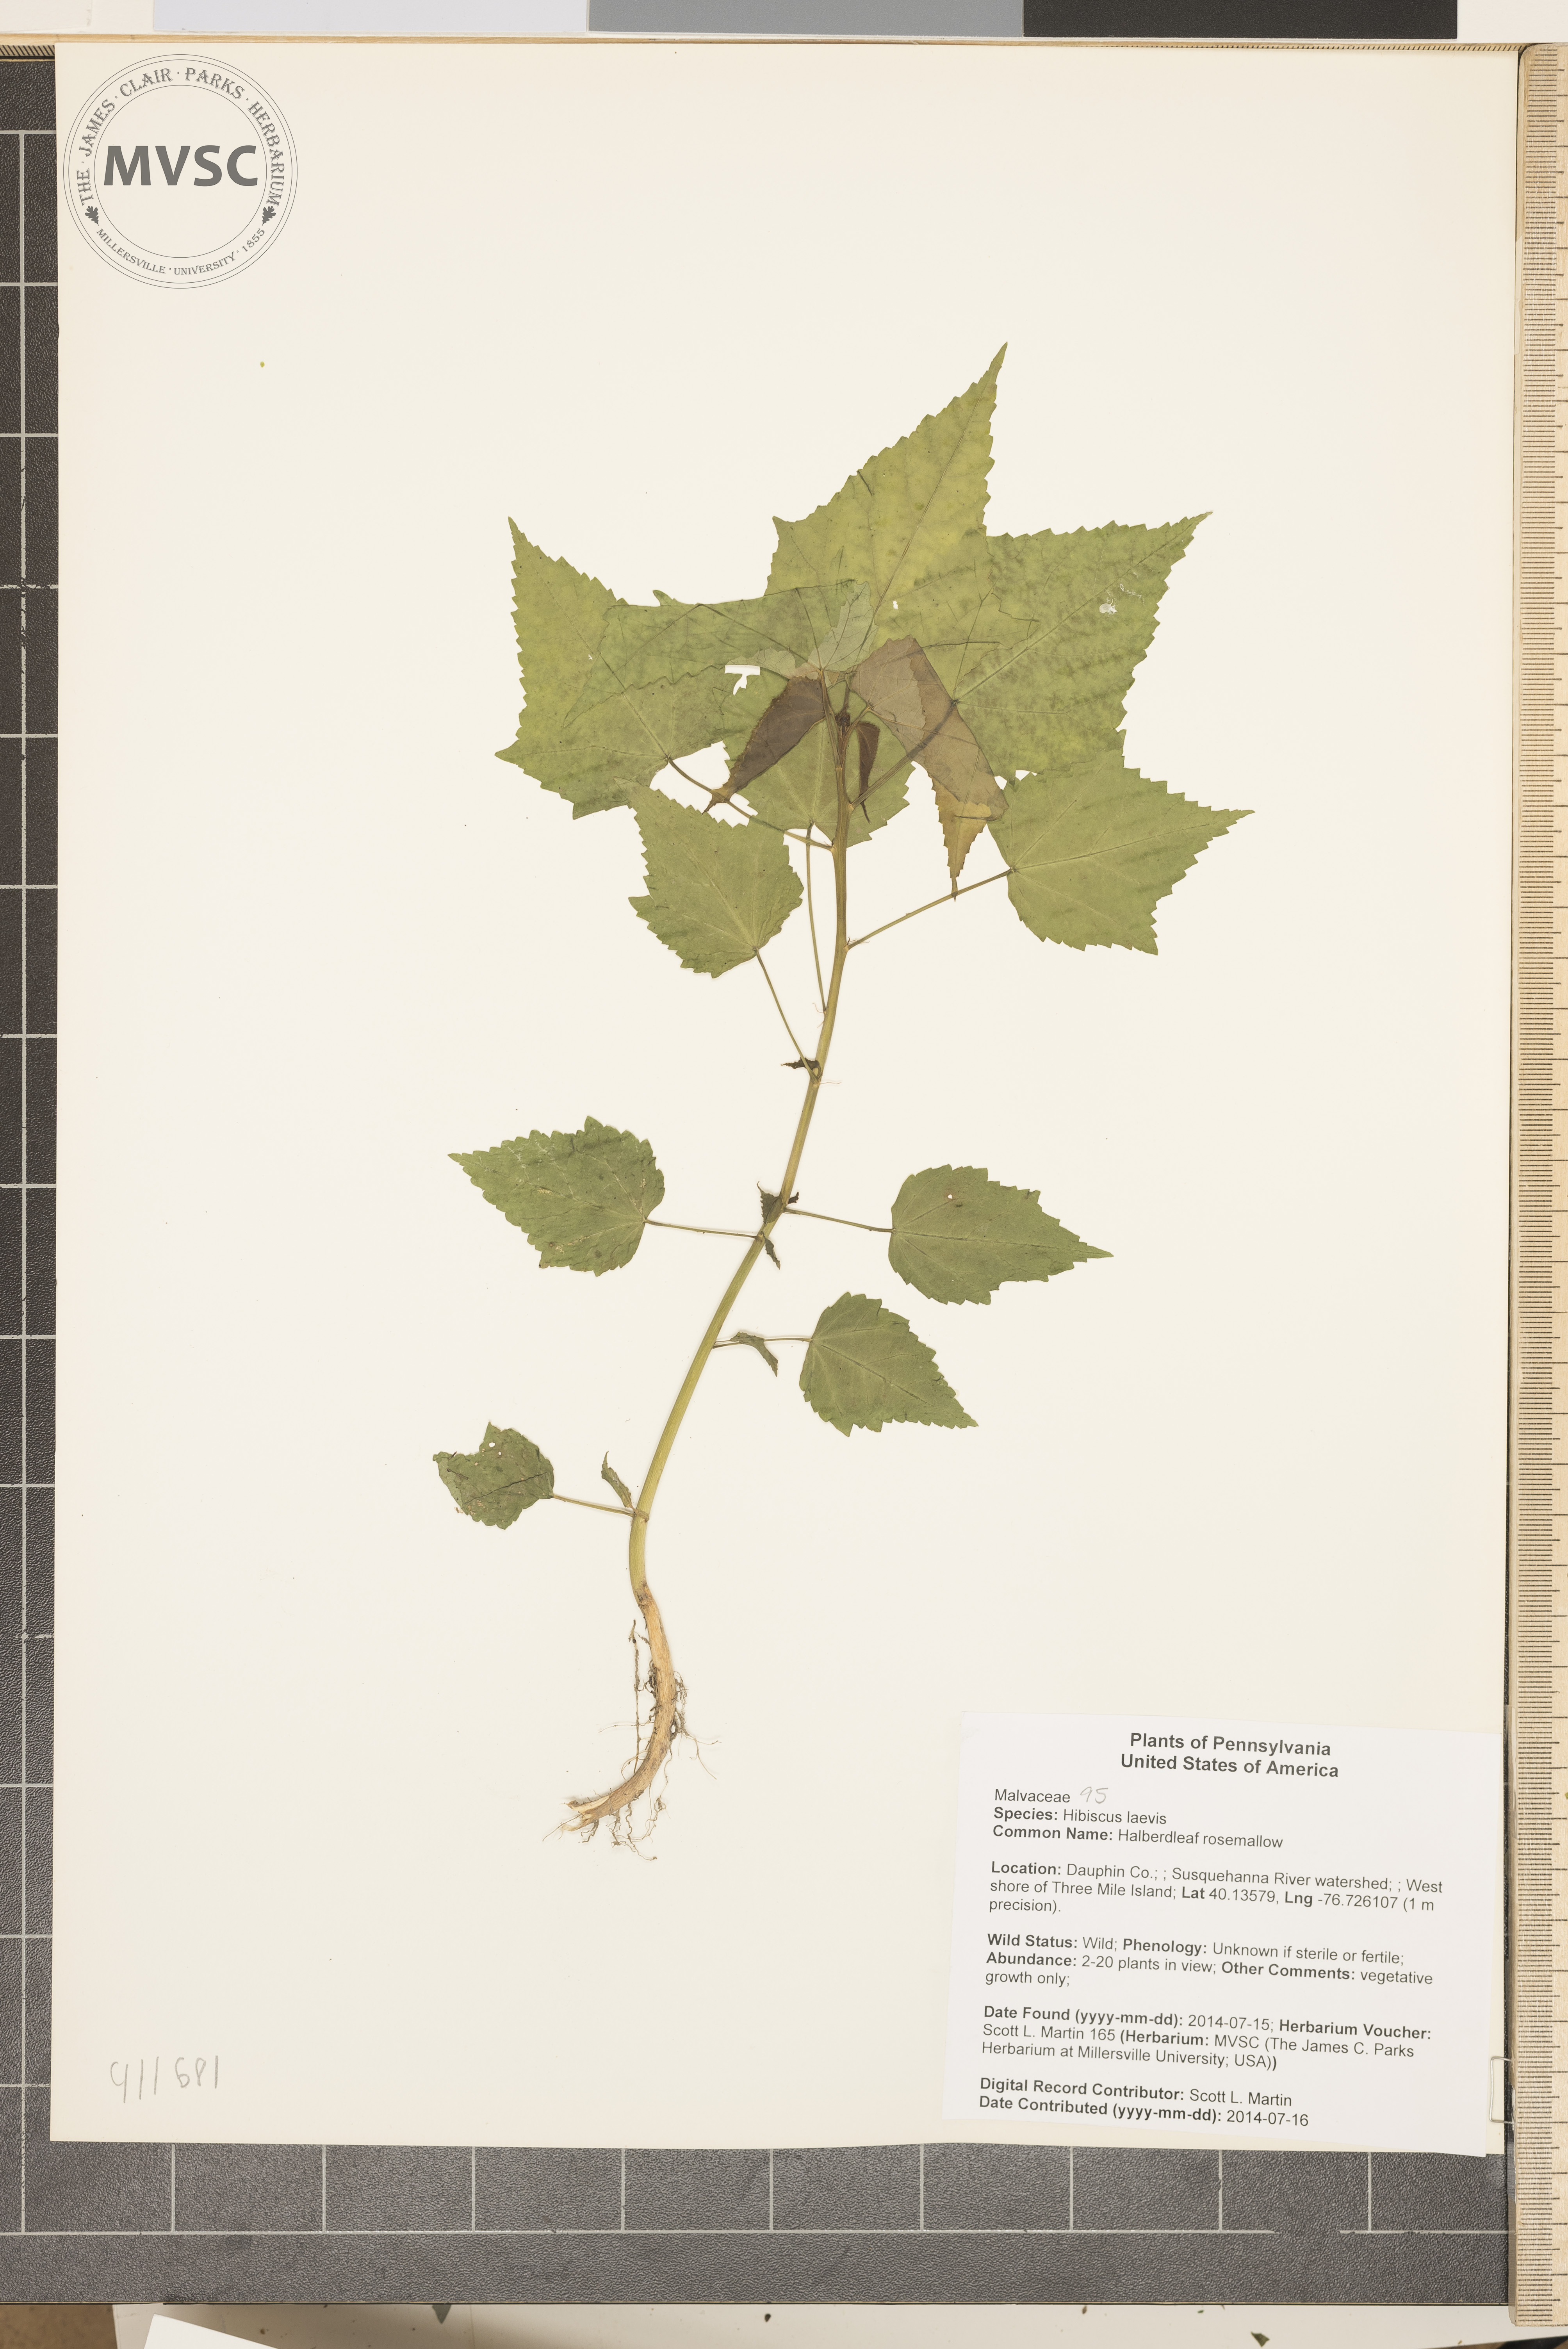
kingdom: Plantae
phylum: Tracheophyta
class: Magnoliopsida
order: Malvales
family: Malvaceae
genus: Hibiscus
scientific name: Hibiscus laevis
